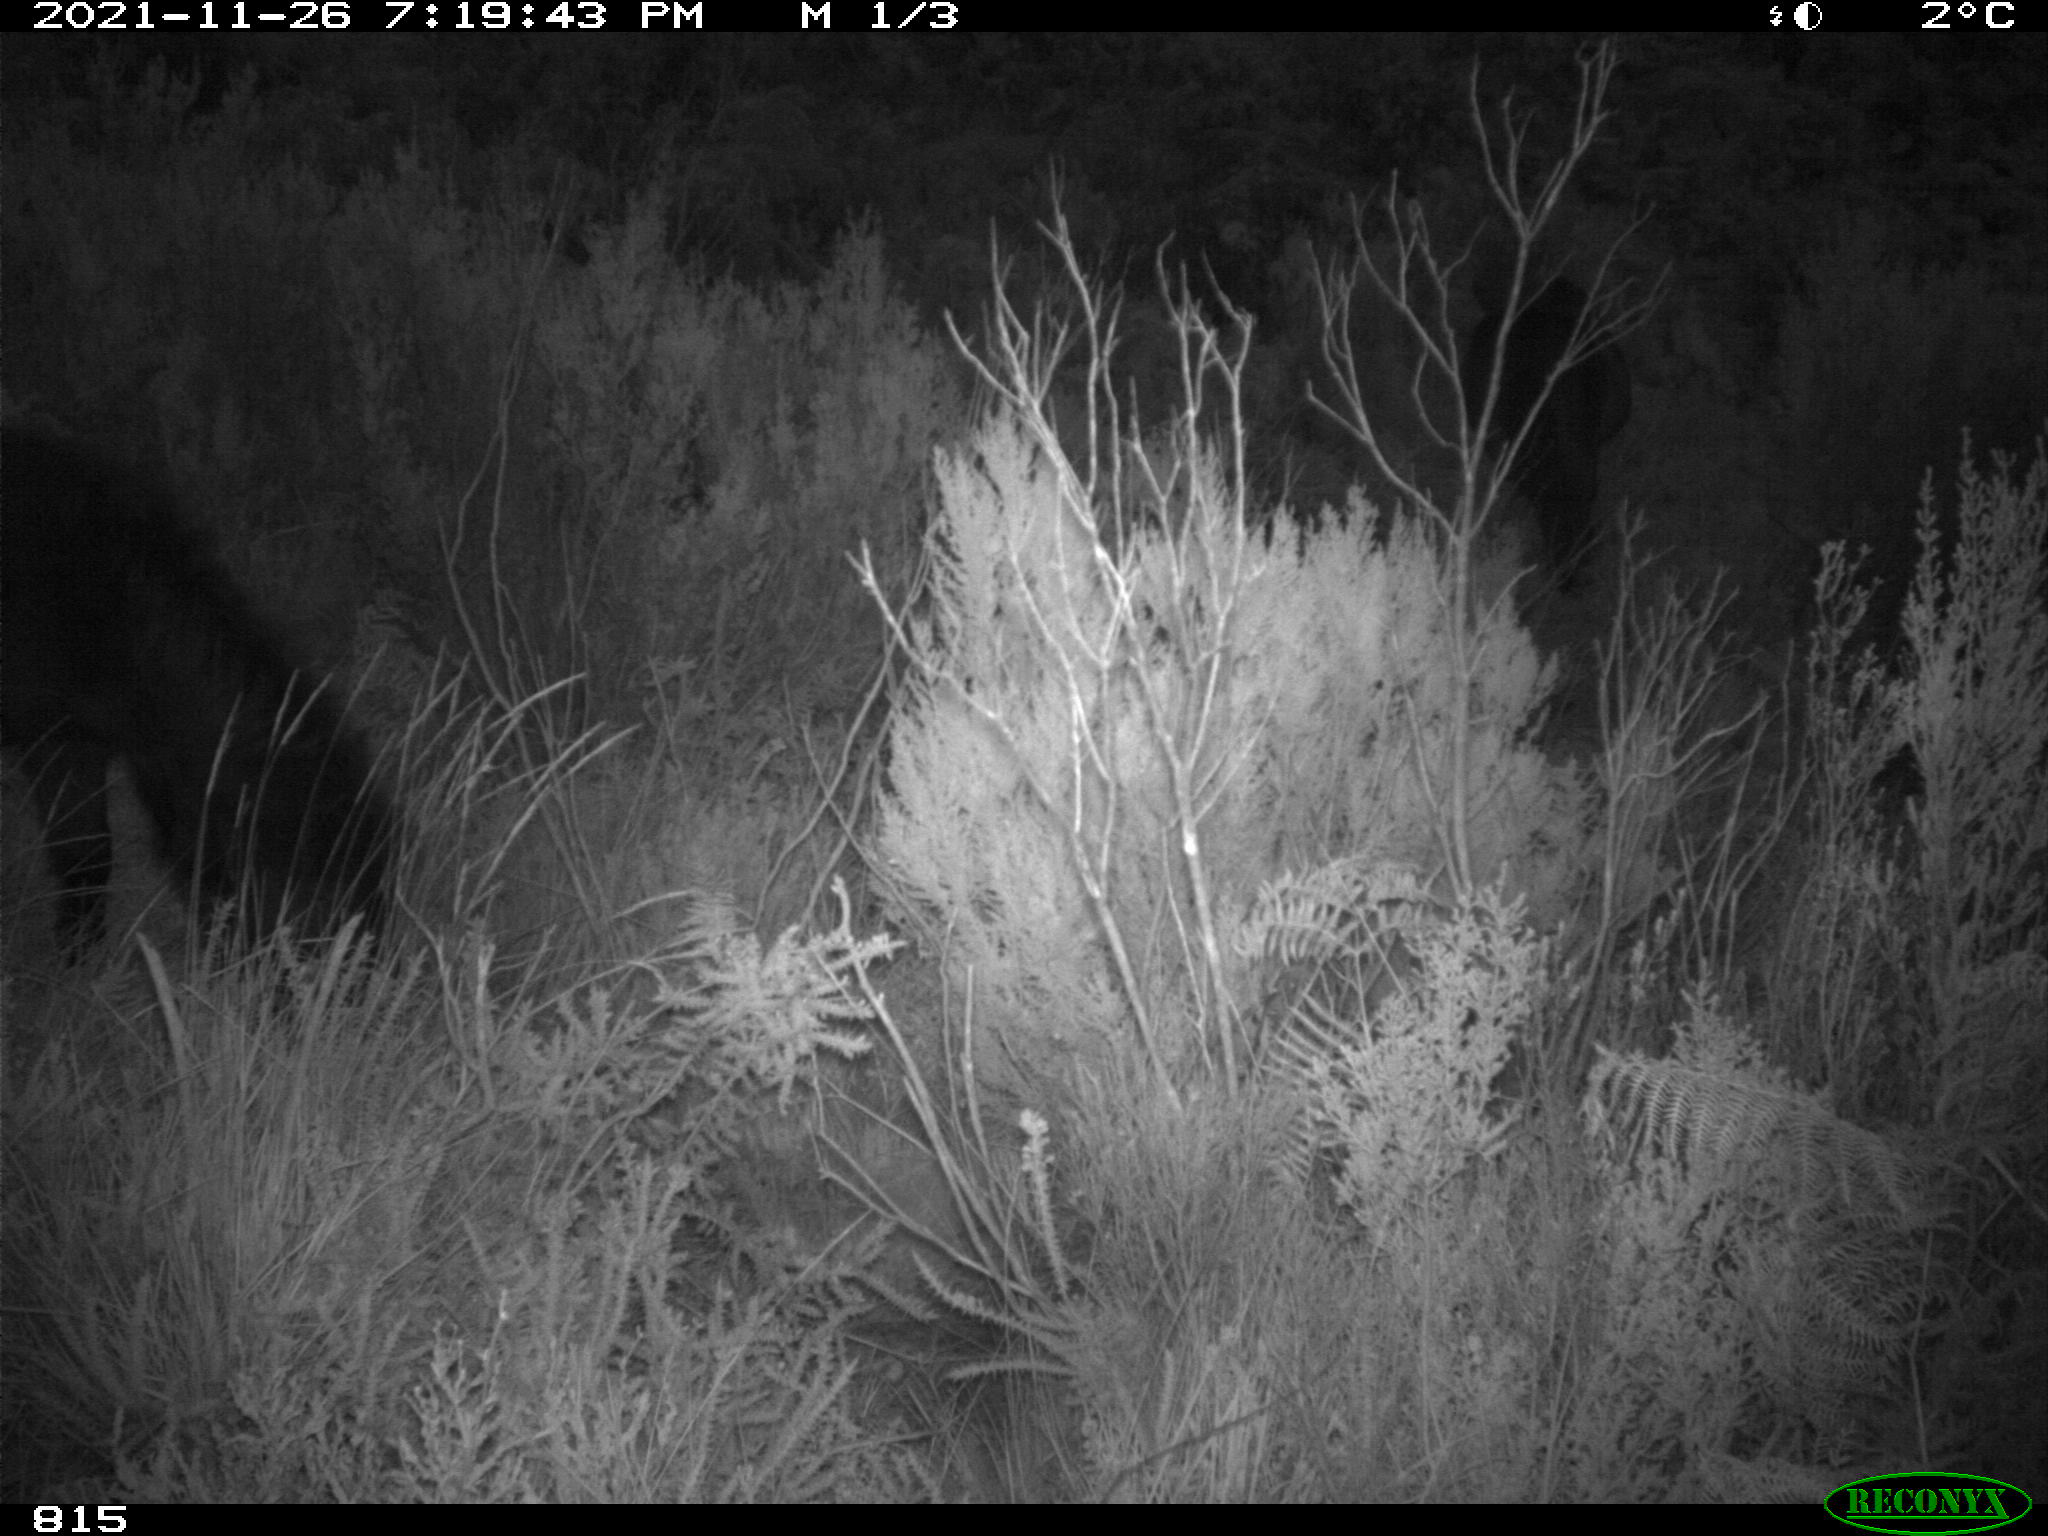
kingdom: Animalia
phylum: Chordata
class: Mammalia
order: Perissodactyla
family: Equidae
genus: Equus
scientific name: Equus caballus
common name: Horse
